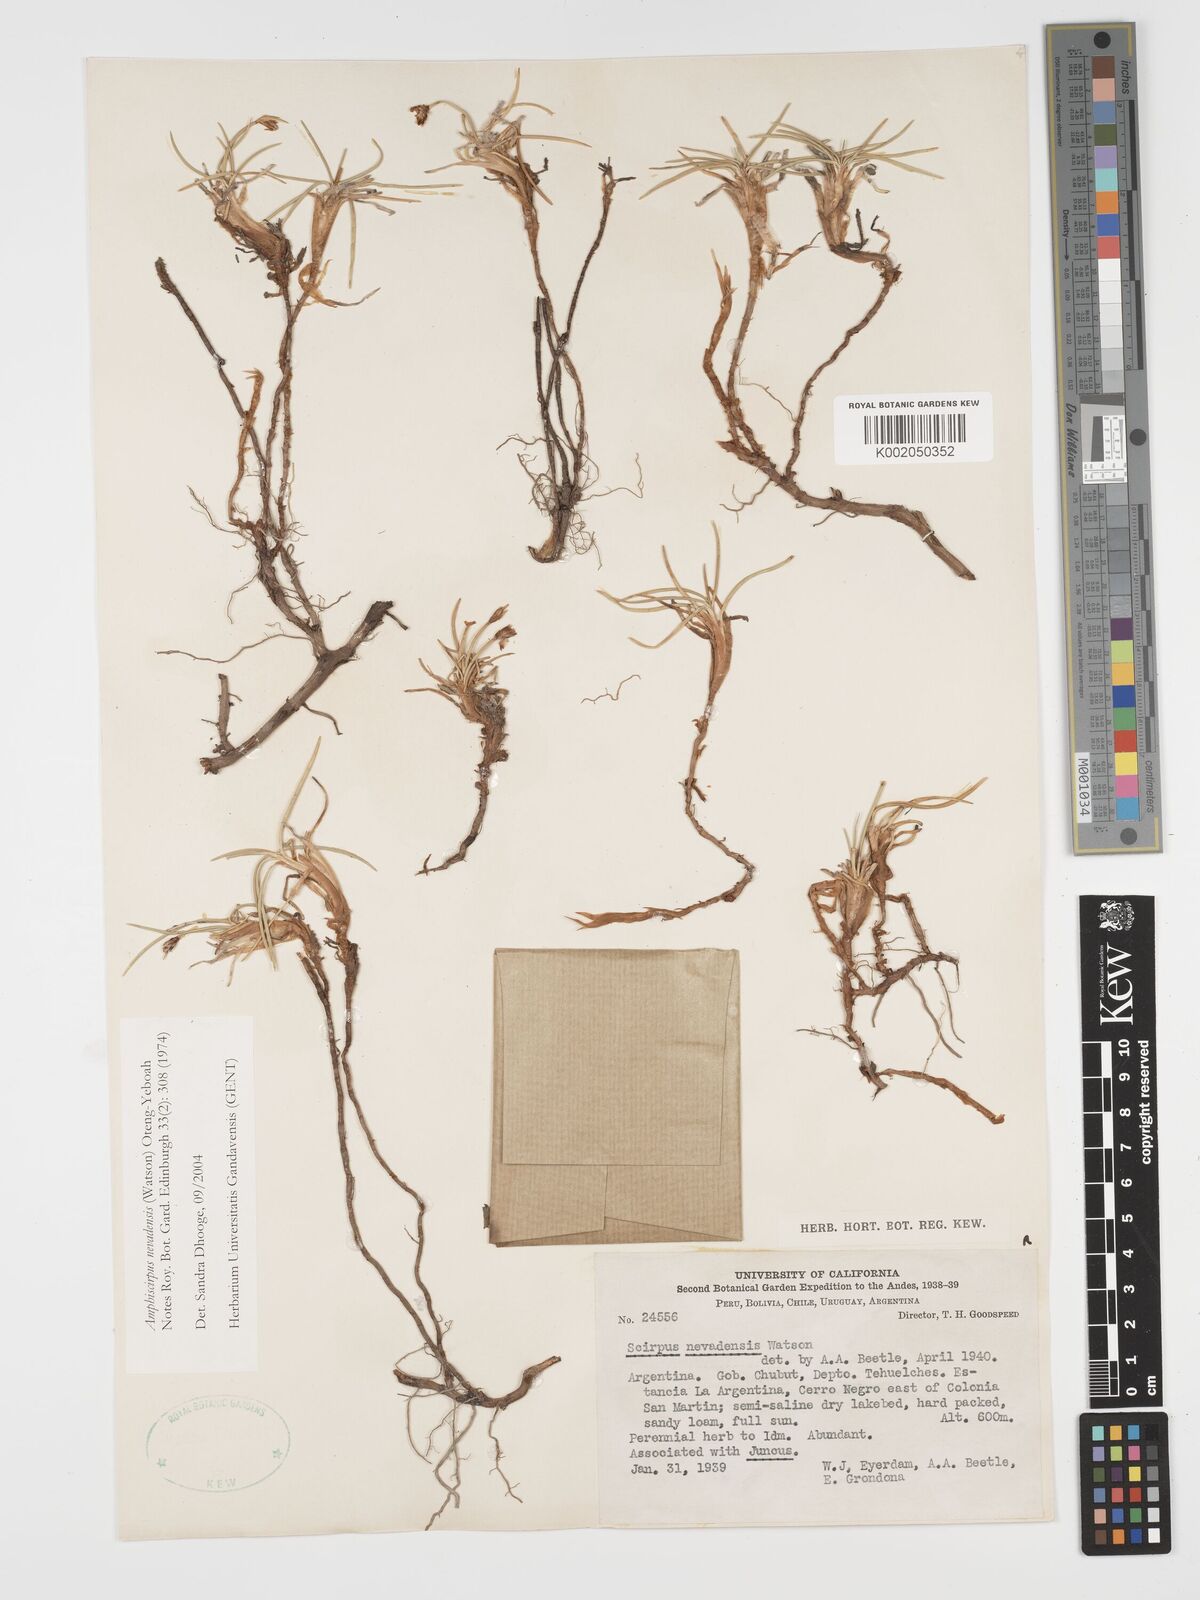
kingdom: Plantae
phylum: Tracheophyta
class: Liliopsida
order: Poales
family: Cyperaceae
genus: Amphiscirpus
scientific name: Amphiscirpus nevadensis
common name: Nevada bulrush
